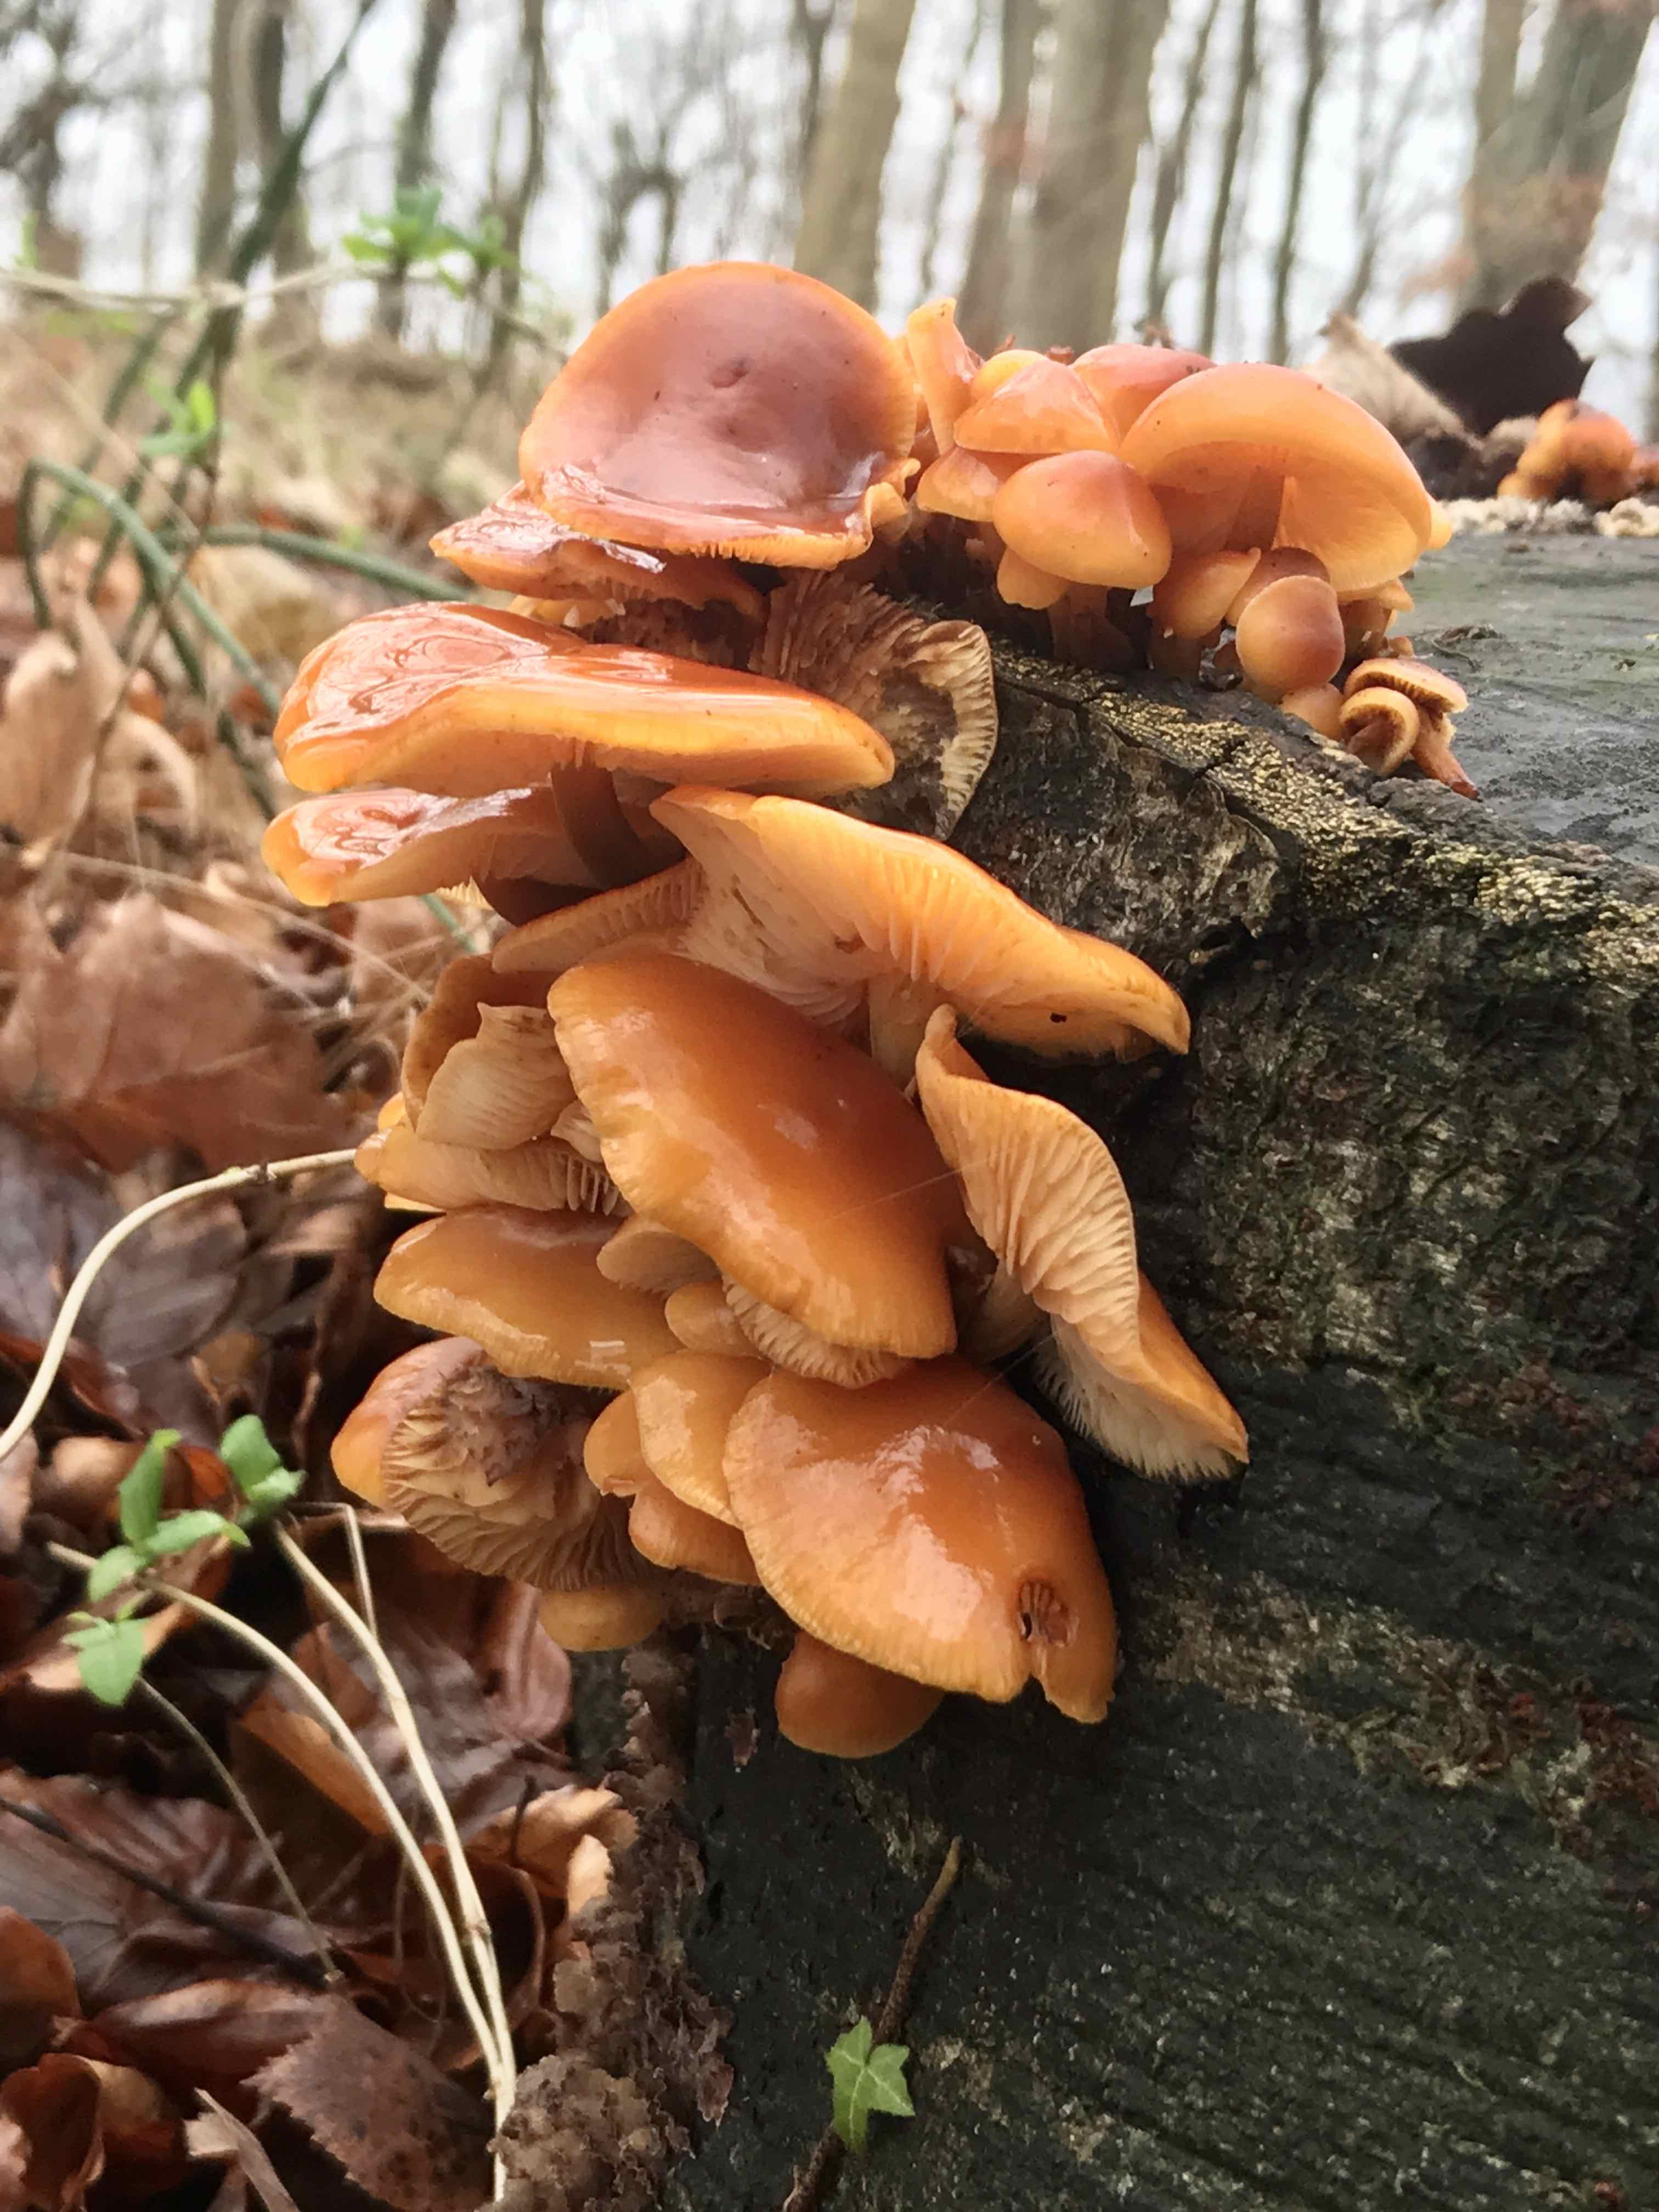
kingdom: Fungi
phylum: Basidiomycota
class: Agaricomycetes
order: Agaricales
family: Physalacriaceae
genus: Flammulina
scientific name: Flammulina velutipes
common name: gul fløjlsfod
